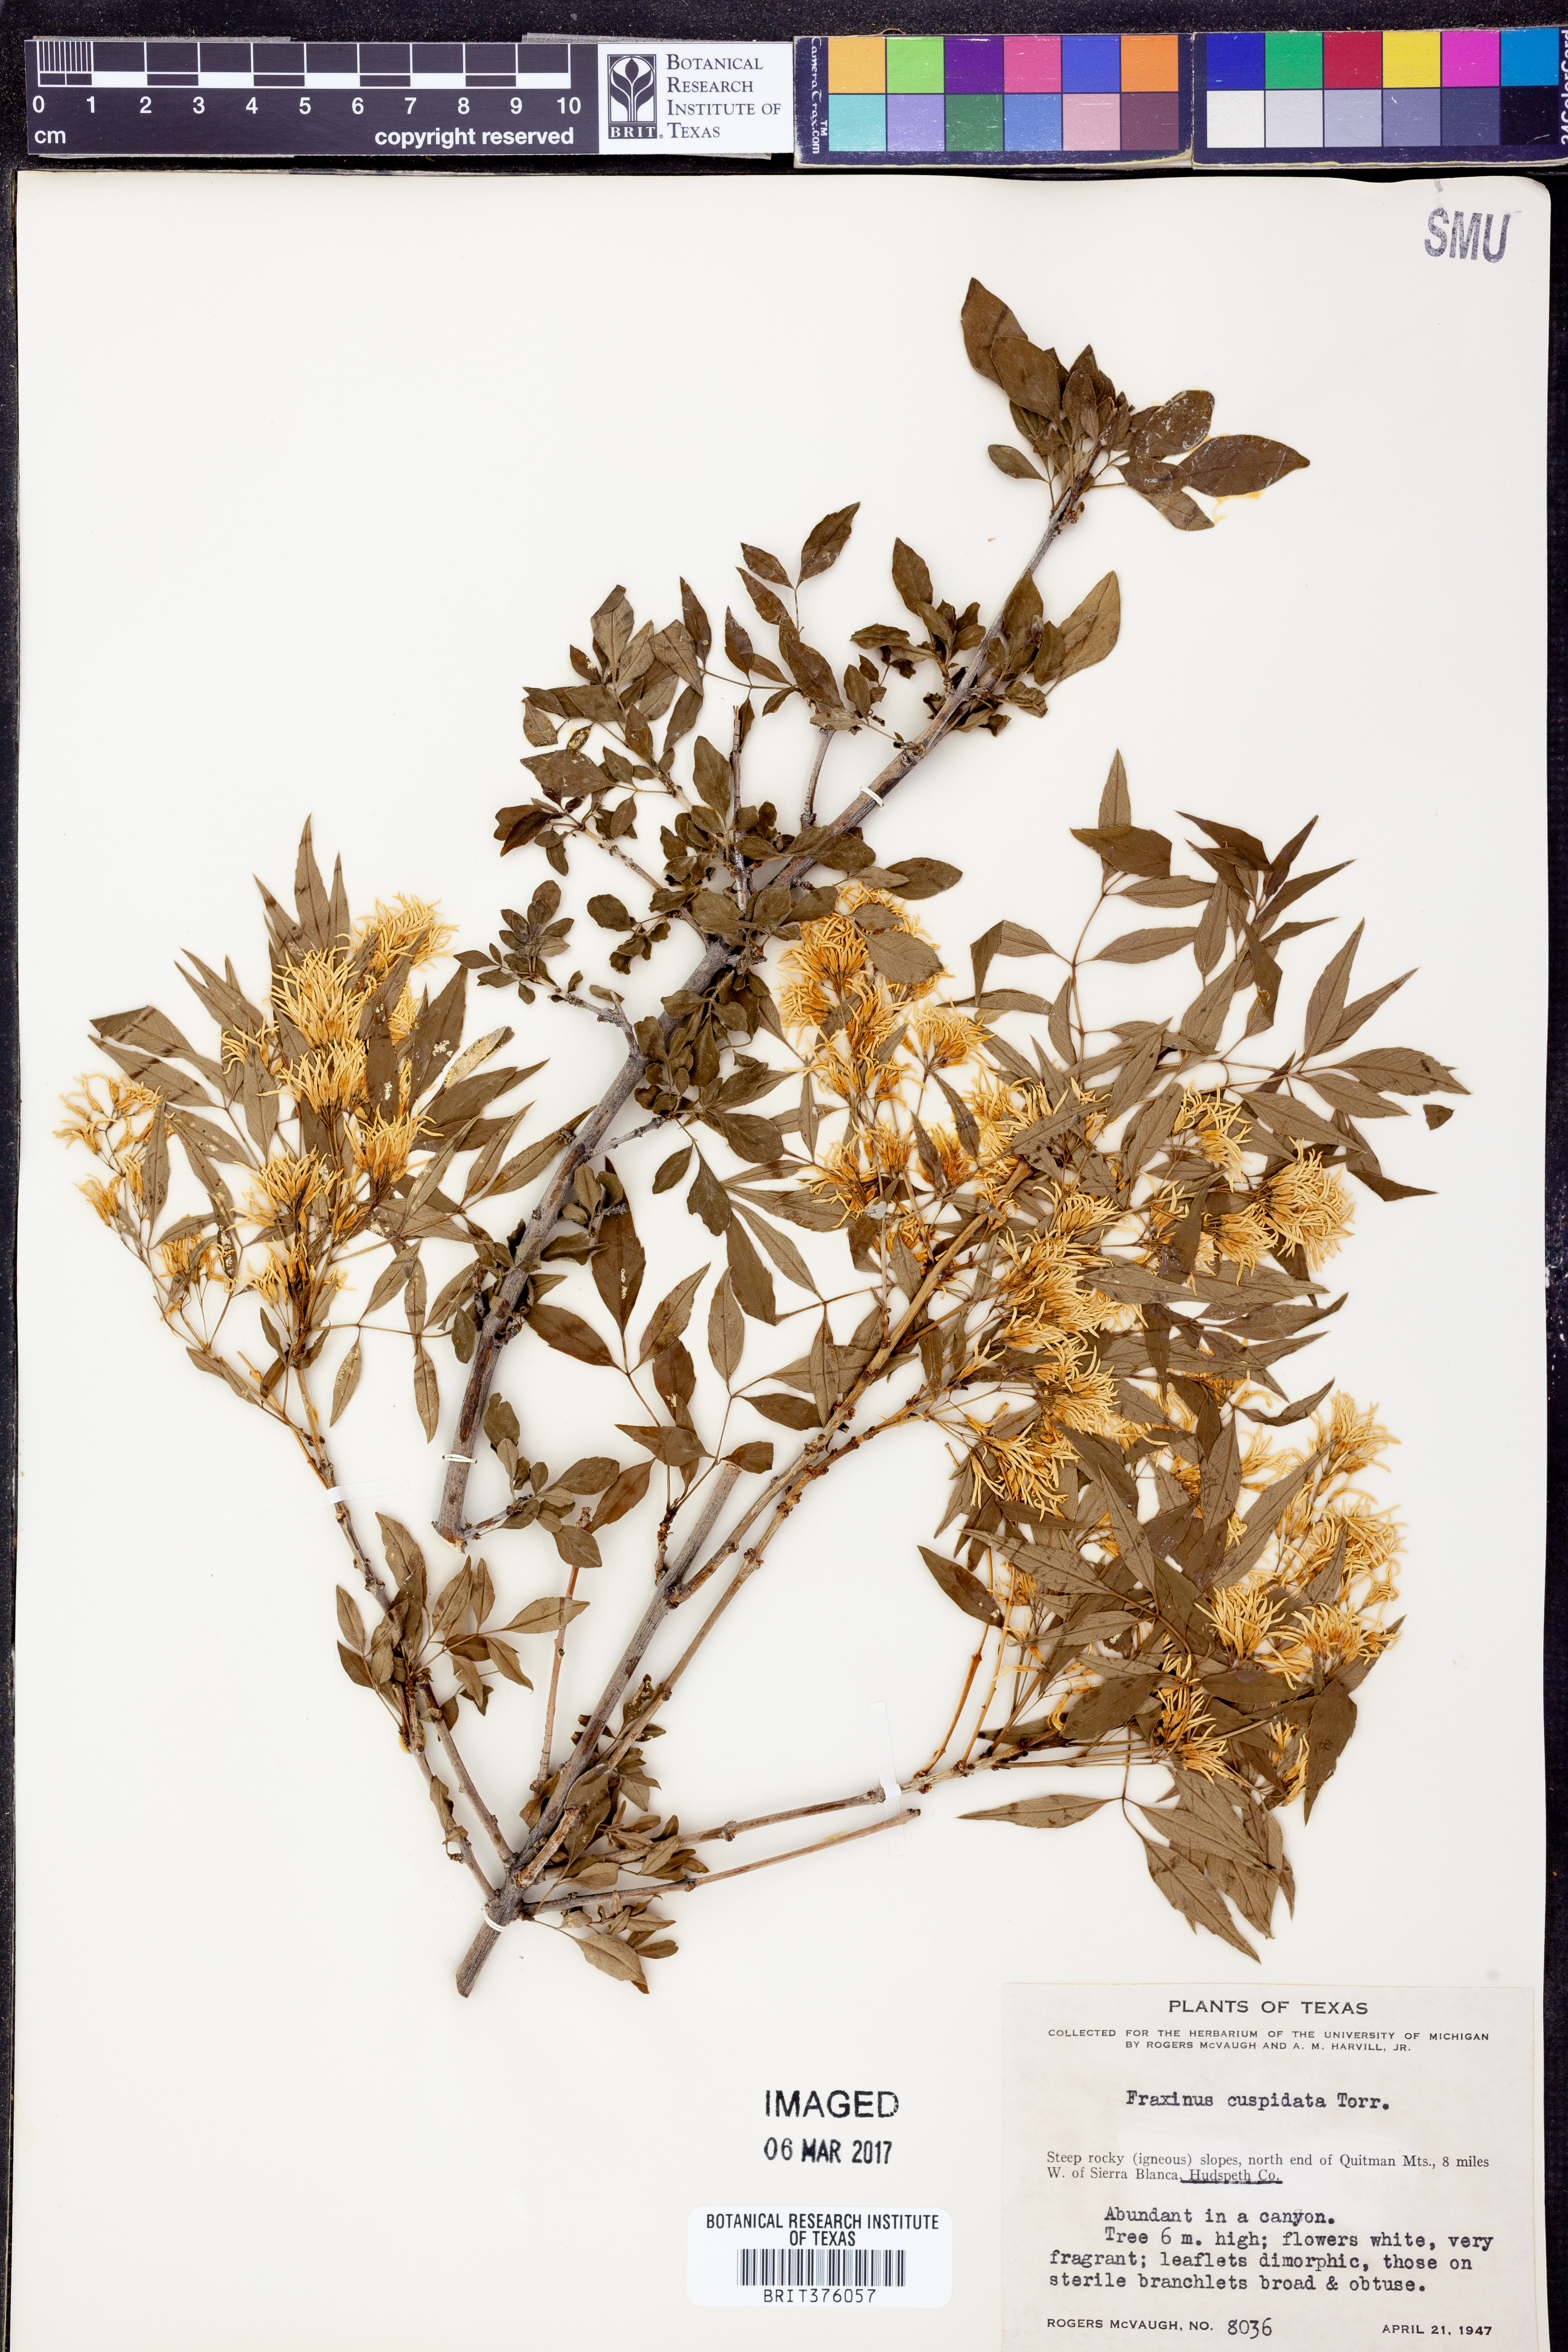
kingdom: Plantae
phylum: Tracheophyta
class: Magnoliopsida
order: Lamiales
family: Oleaceae
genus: Fraxinus
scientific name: Fraxinus cuspidata
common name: Fragrant ash
